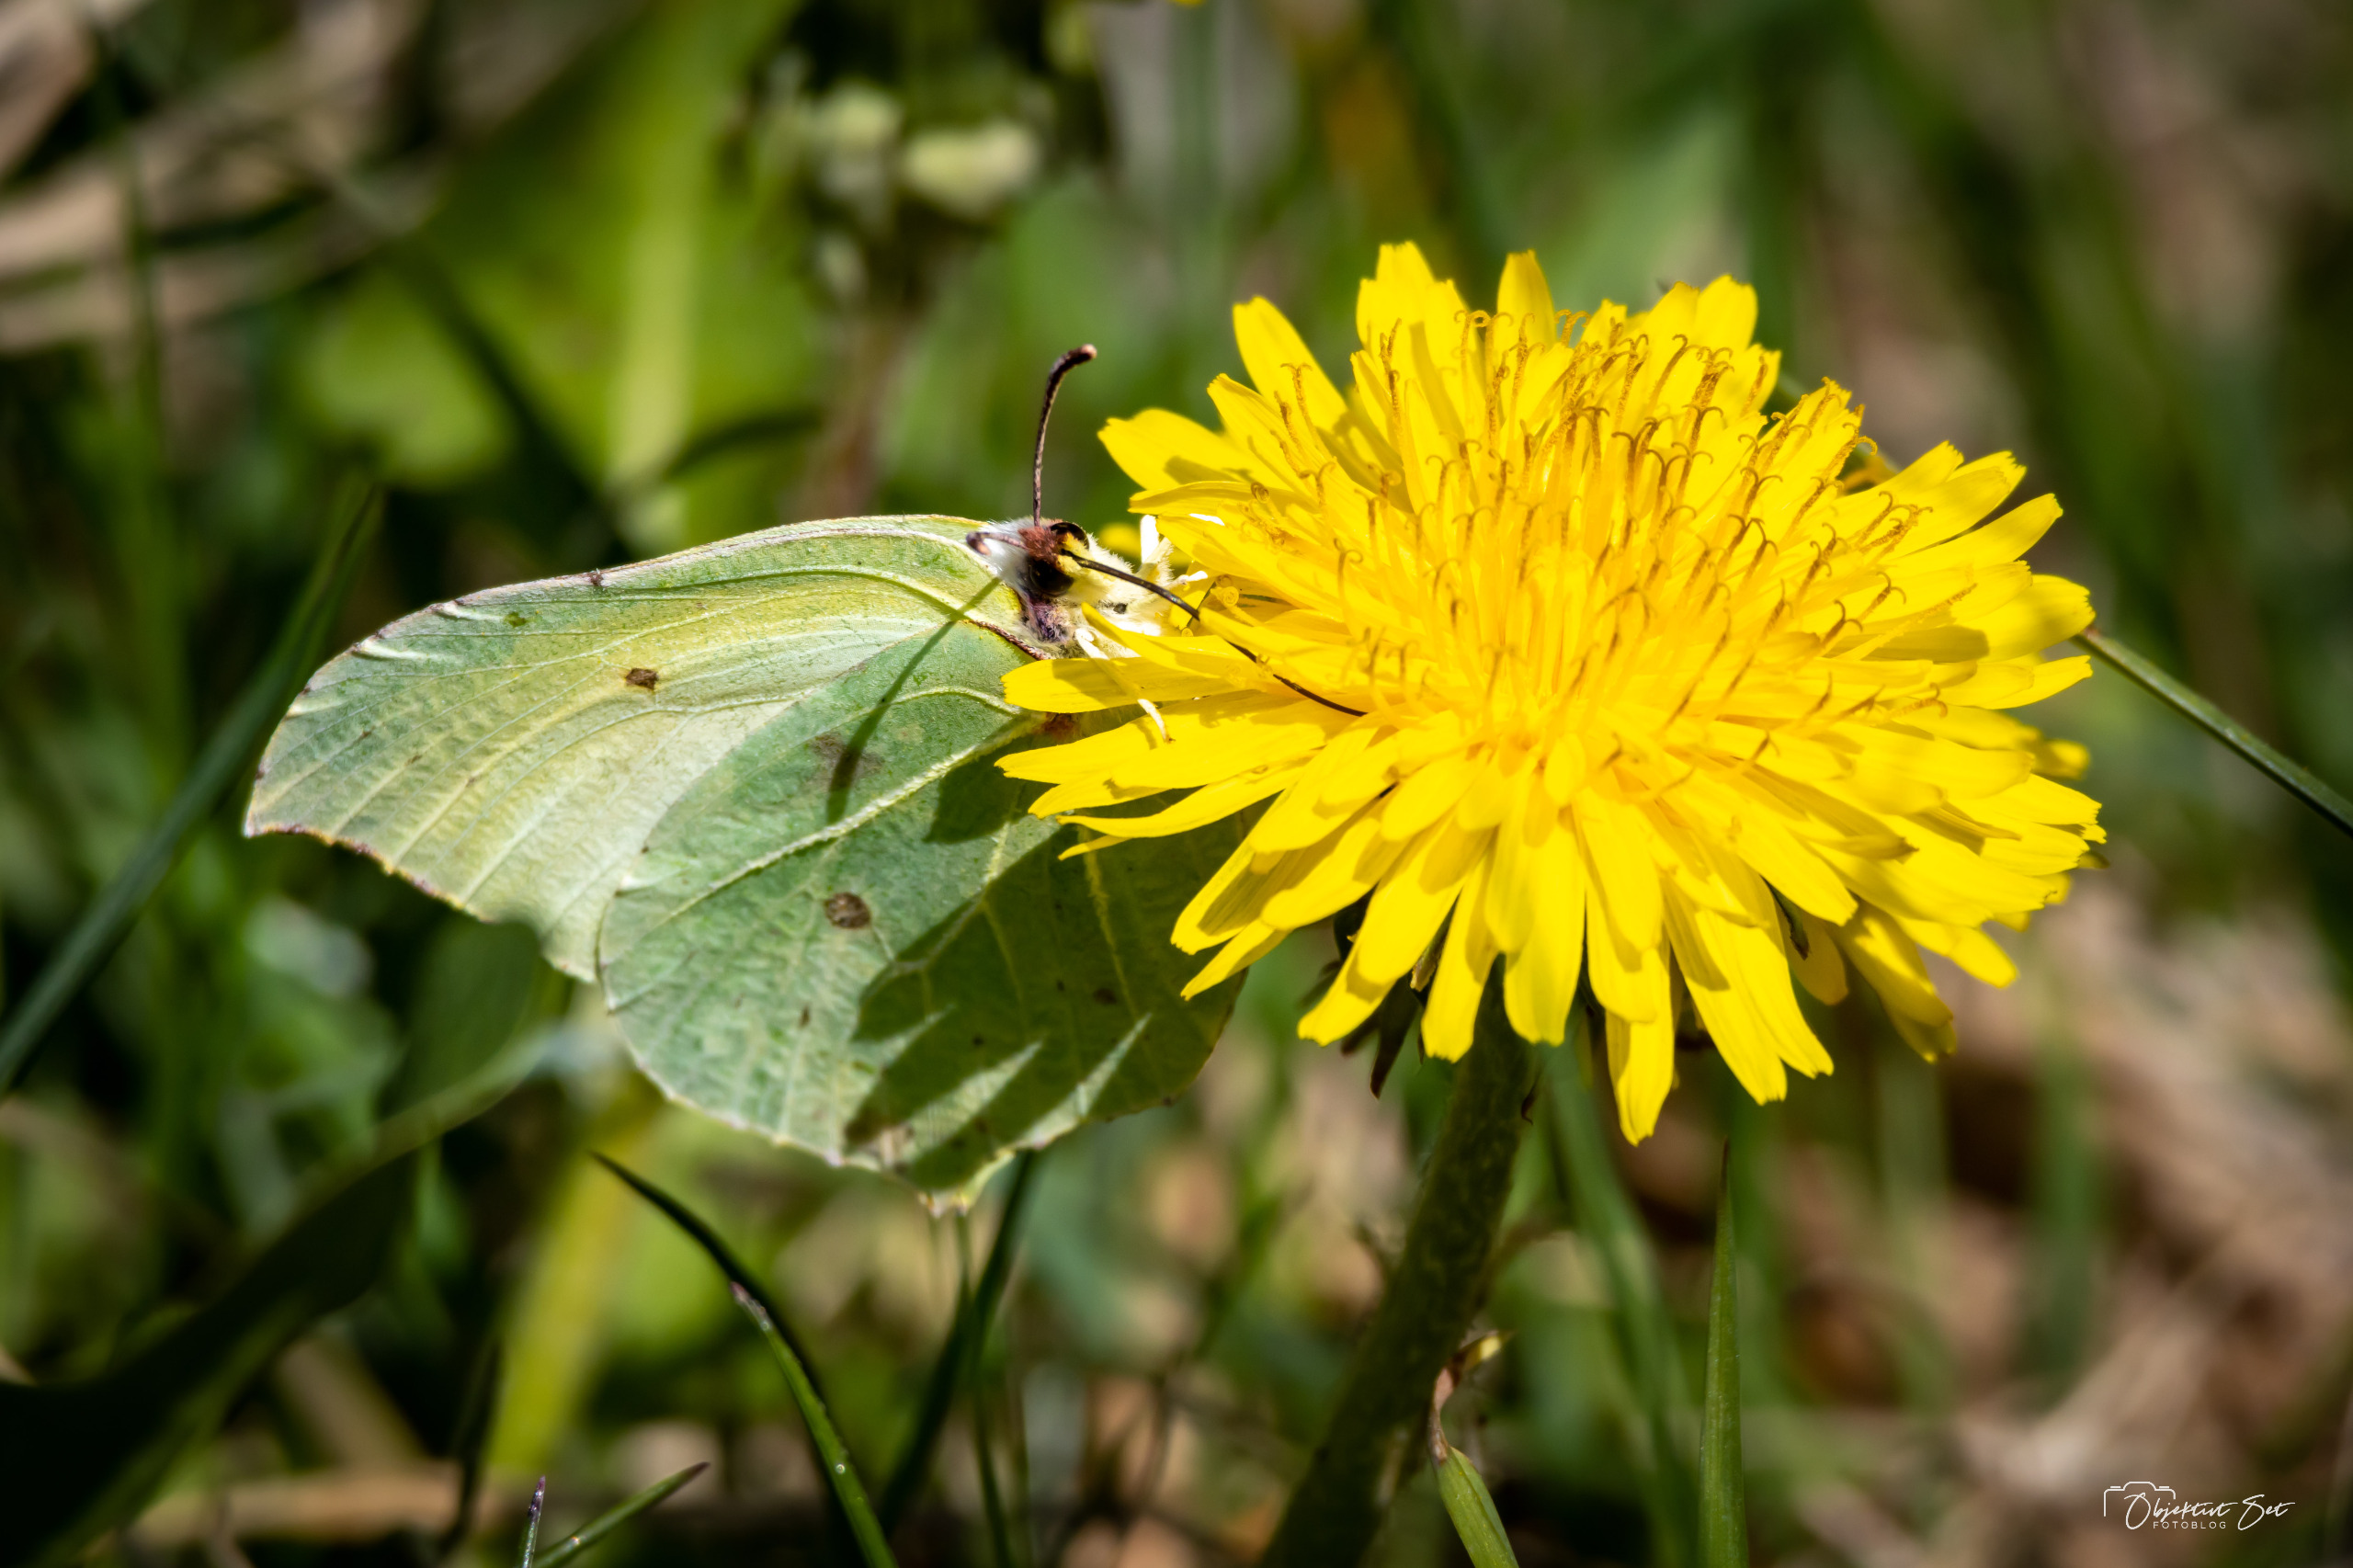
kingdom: Animalia
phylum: Arthropoda
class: Insecta
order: Lepidoptera
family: Pieridae
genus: Gonepteryx
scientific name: Gonepteryx rhamni
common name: Citronsommerfugl
